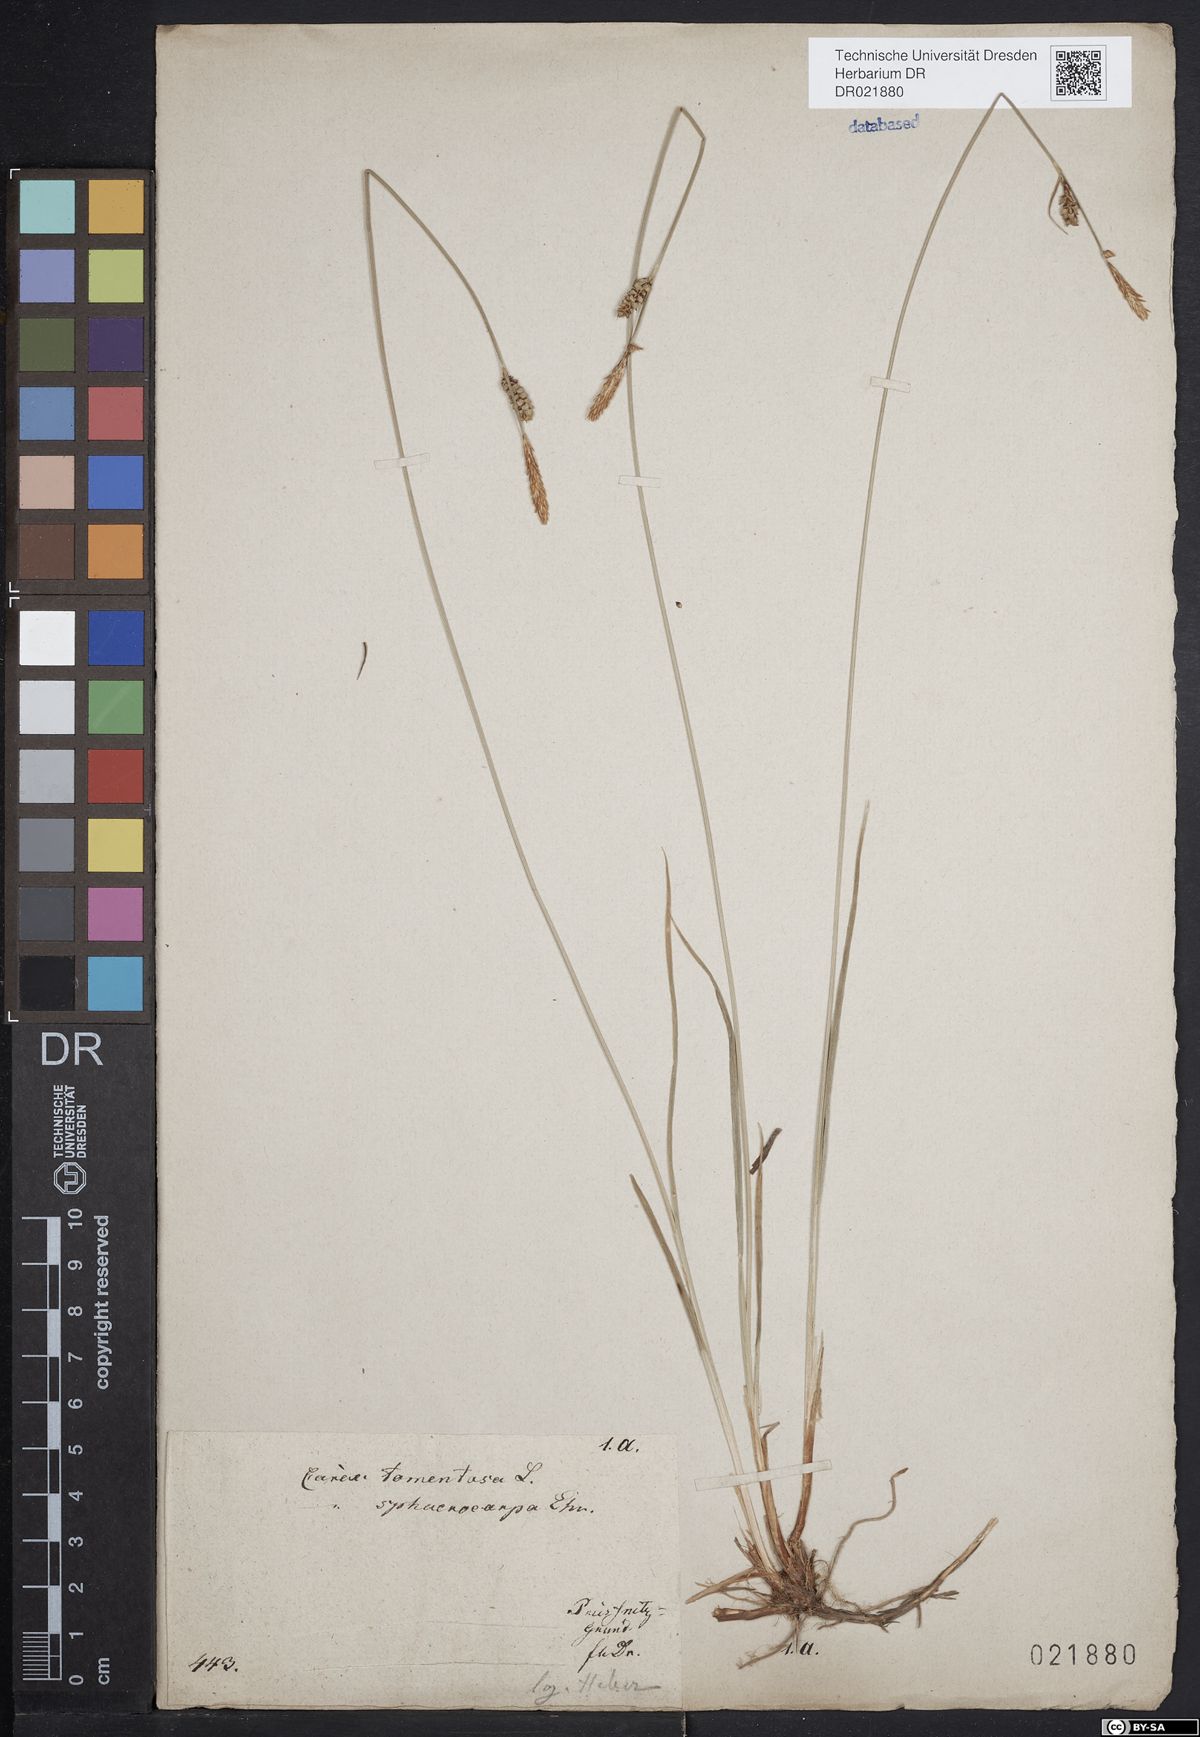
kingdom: Plantae
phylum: Tracheophyta
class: Liliopsida
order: Poales
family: Cyperaceae
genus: Carex
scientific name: Carex tomentosa
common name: Downy-fruited sedge
